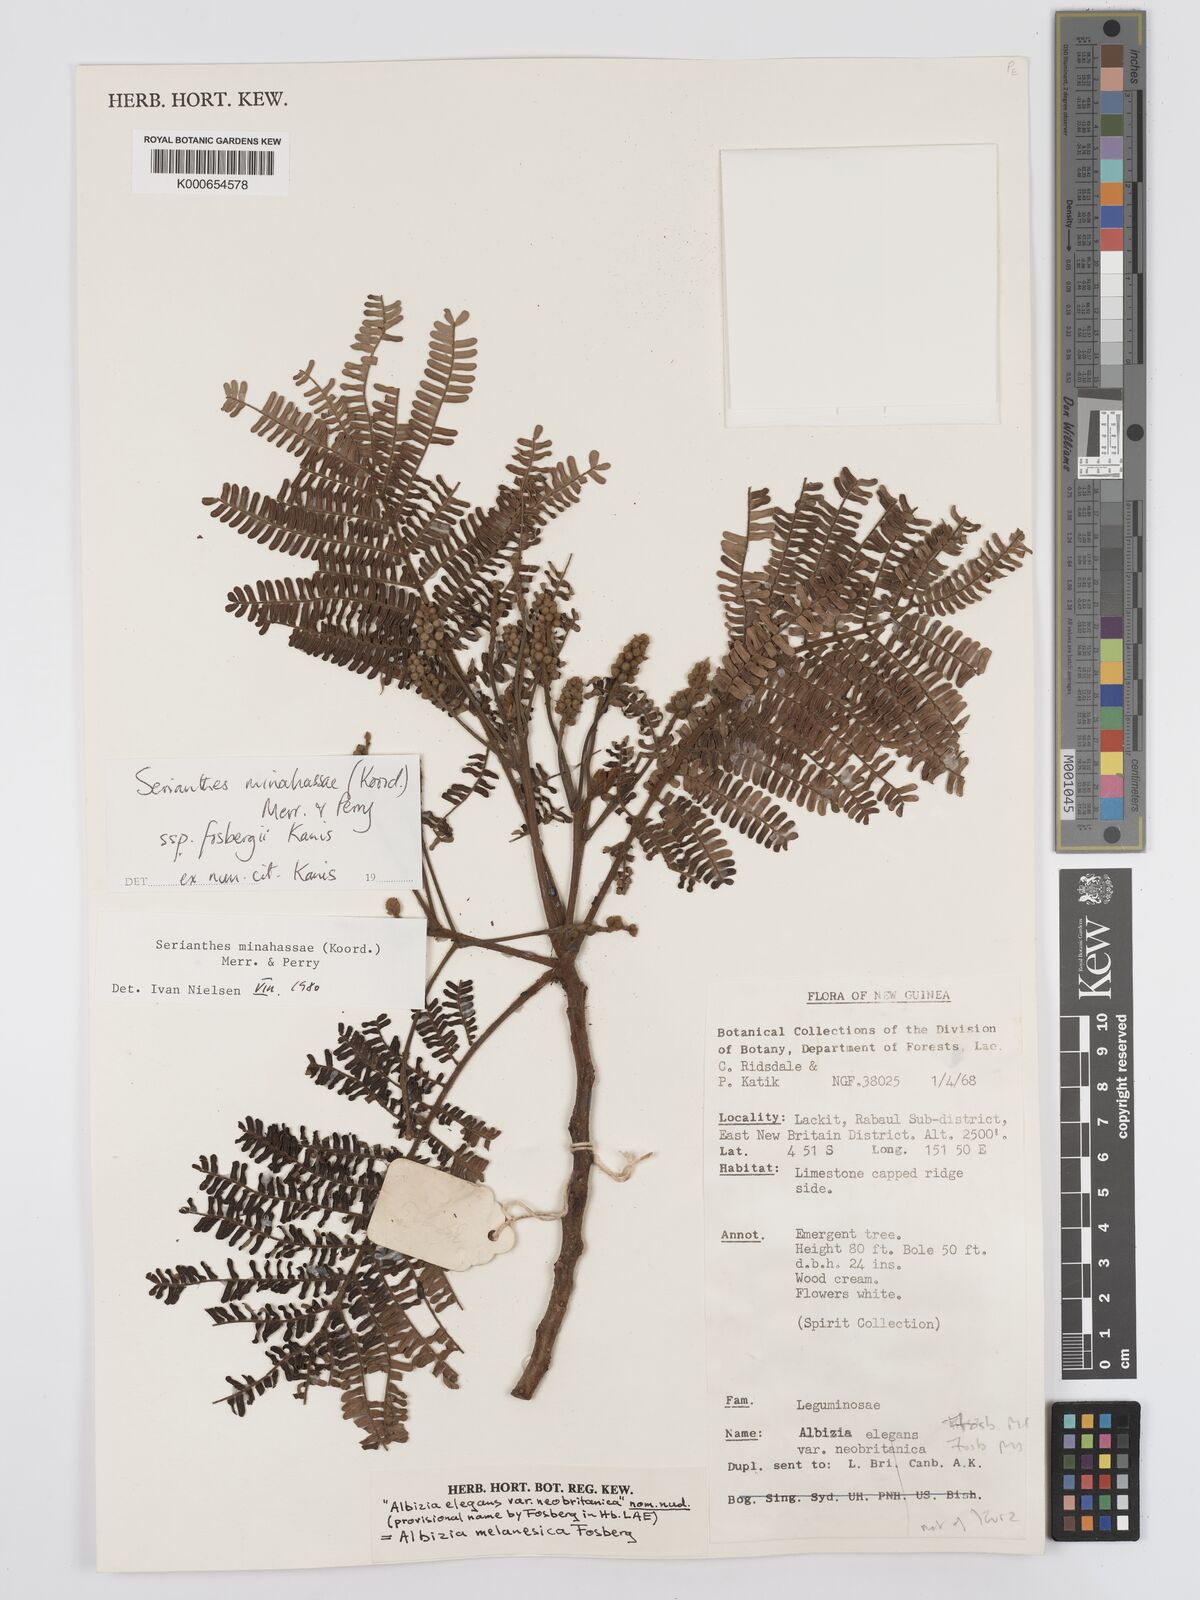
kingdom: Plantae
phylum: Tracheophyta
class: Magnoliopsida
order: Fabales
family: Fabaceae
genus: Serianthes
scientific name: Serianthes minahassae
